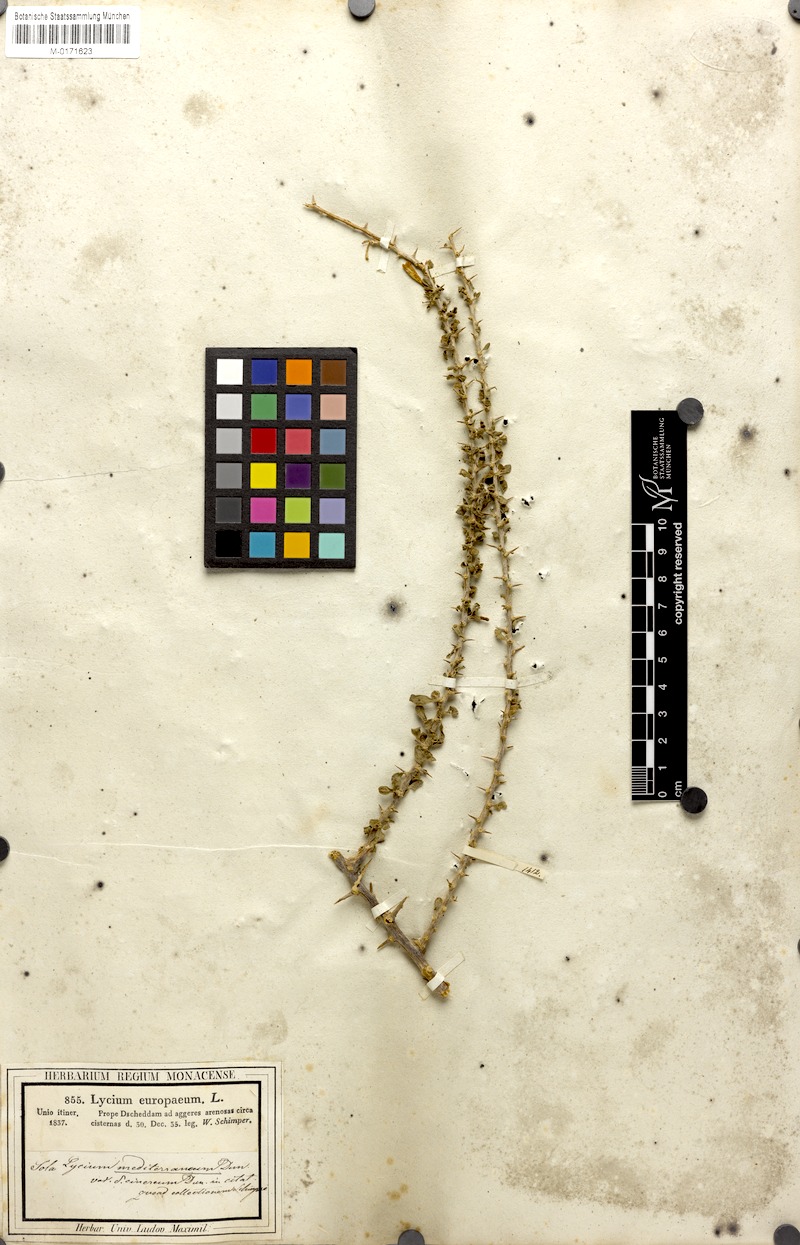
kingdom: Plantae
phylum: Tracheophyta
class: Magnoliopsida
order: Solanales
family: Solanaceae
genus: Lycium
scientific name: Lycium europaeum
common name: Boxthorn
